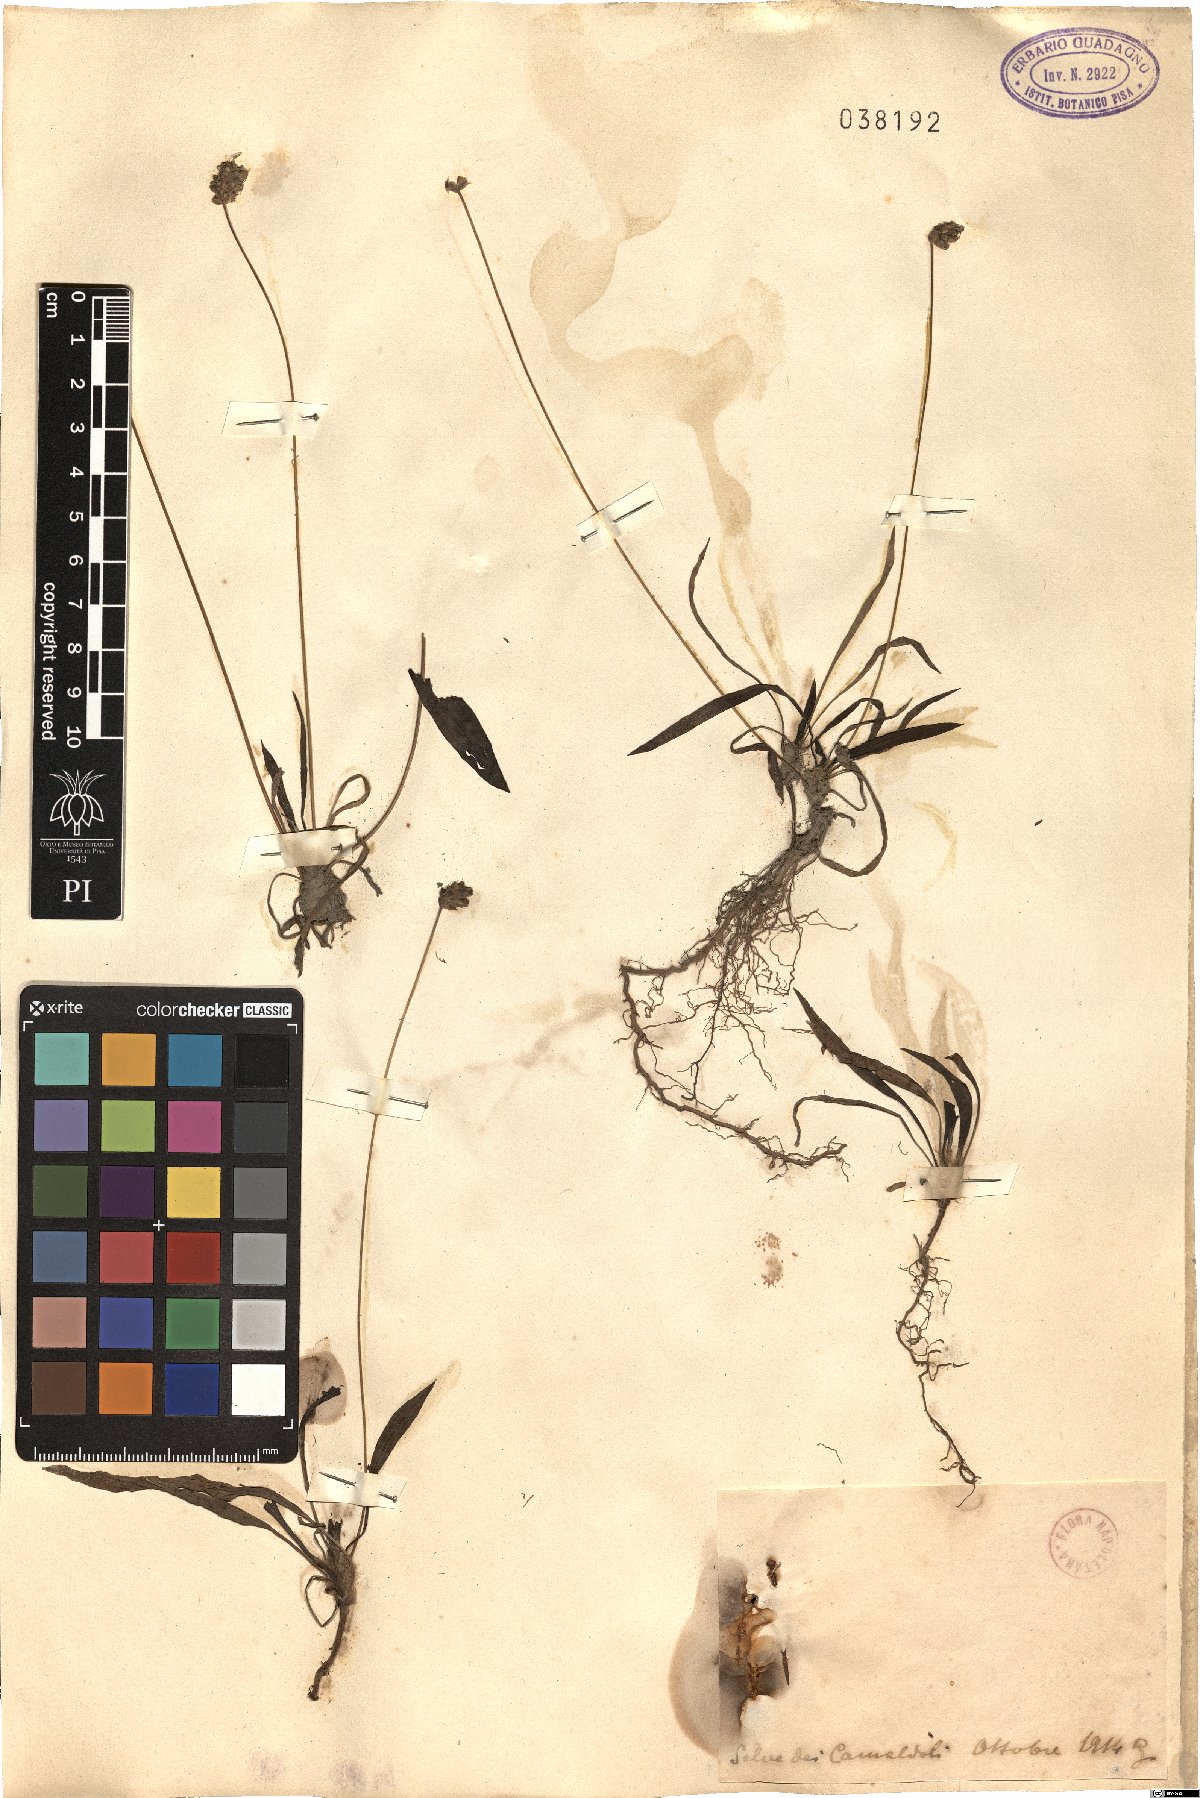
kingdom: Plantae
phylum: Tracheophyta
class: Magnoliopsida
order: Lamiales
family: Plantaginaceae
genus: Plantago
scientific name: Plantago
